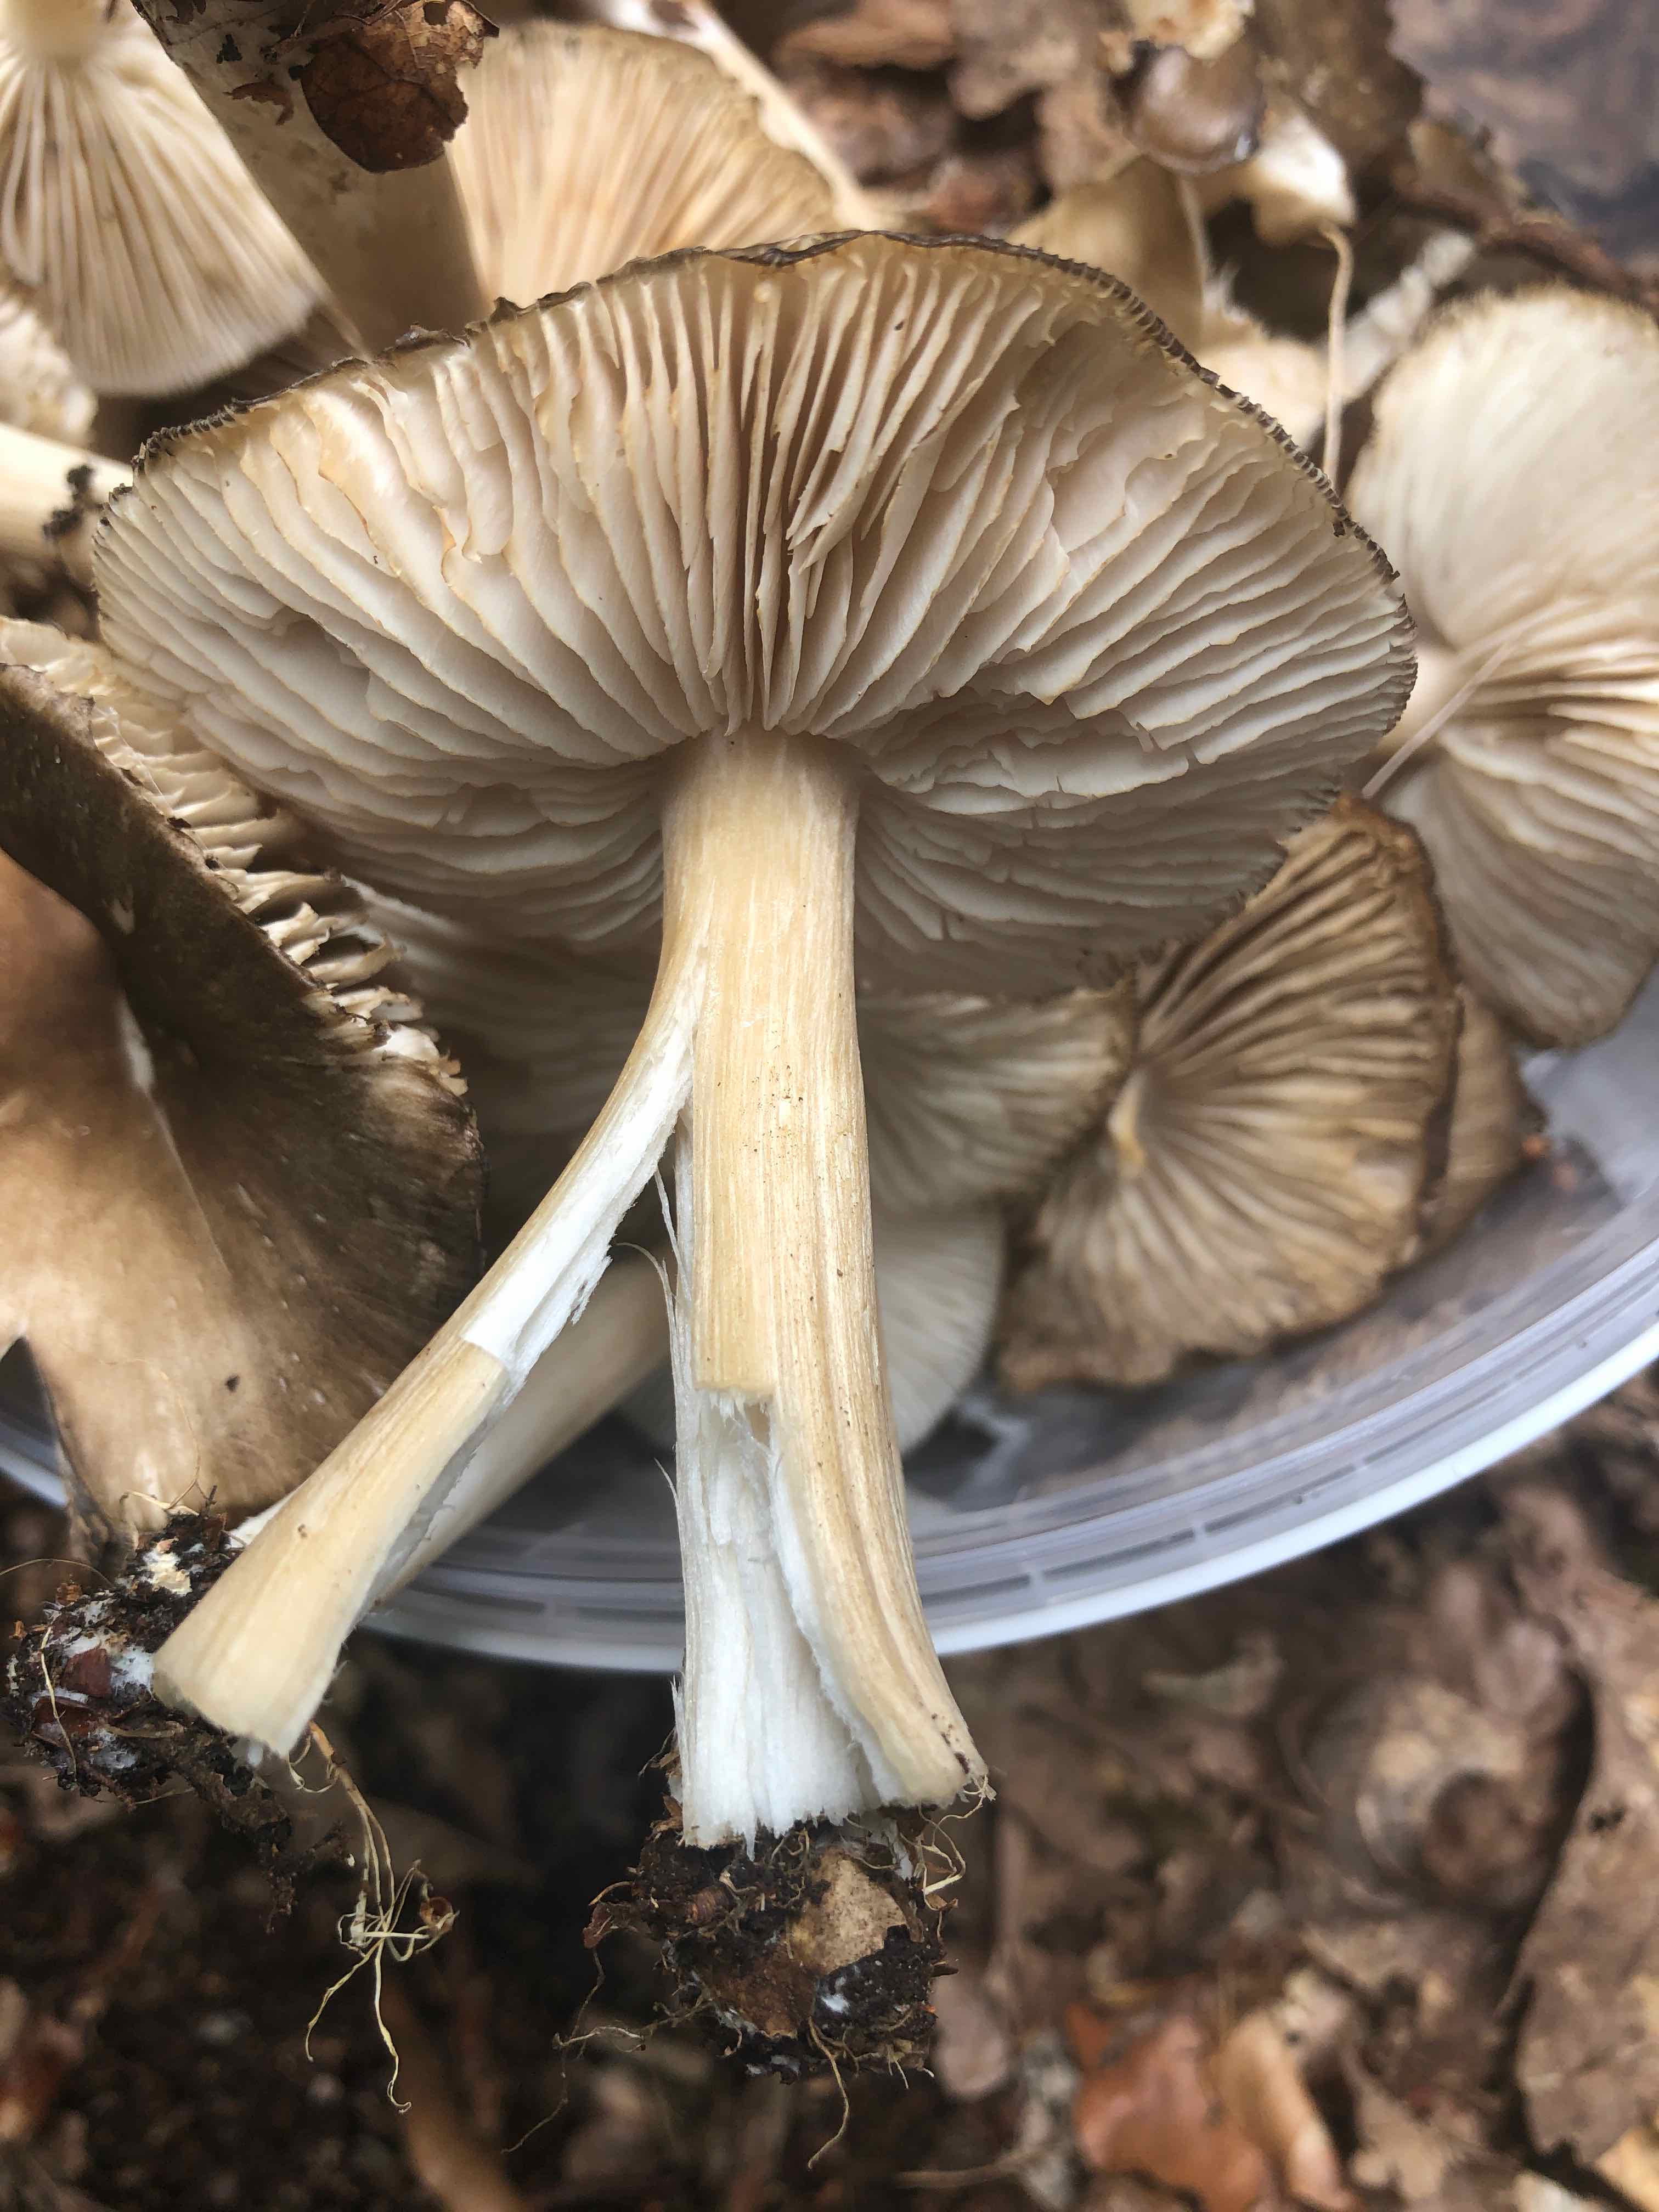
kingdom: Fungi
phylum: Basidiomycota
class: Agaricomycetes
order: Agaricales
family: Tricholomataceae
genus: Megacollybia
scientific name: Megacollybia platyphylla
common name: bredbladet væbnerhat
